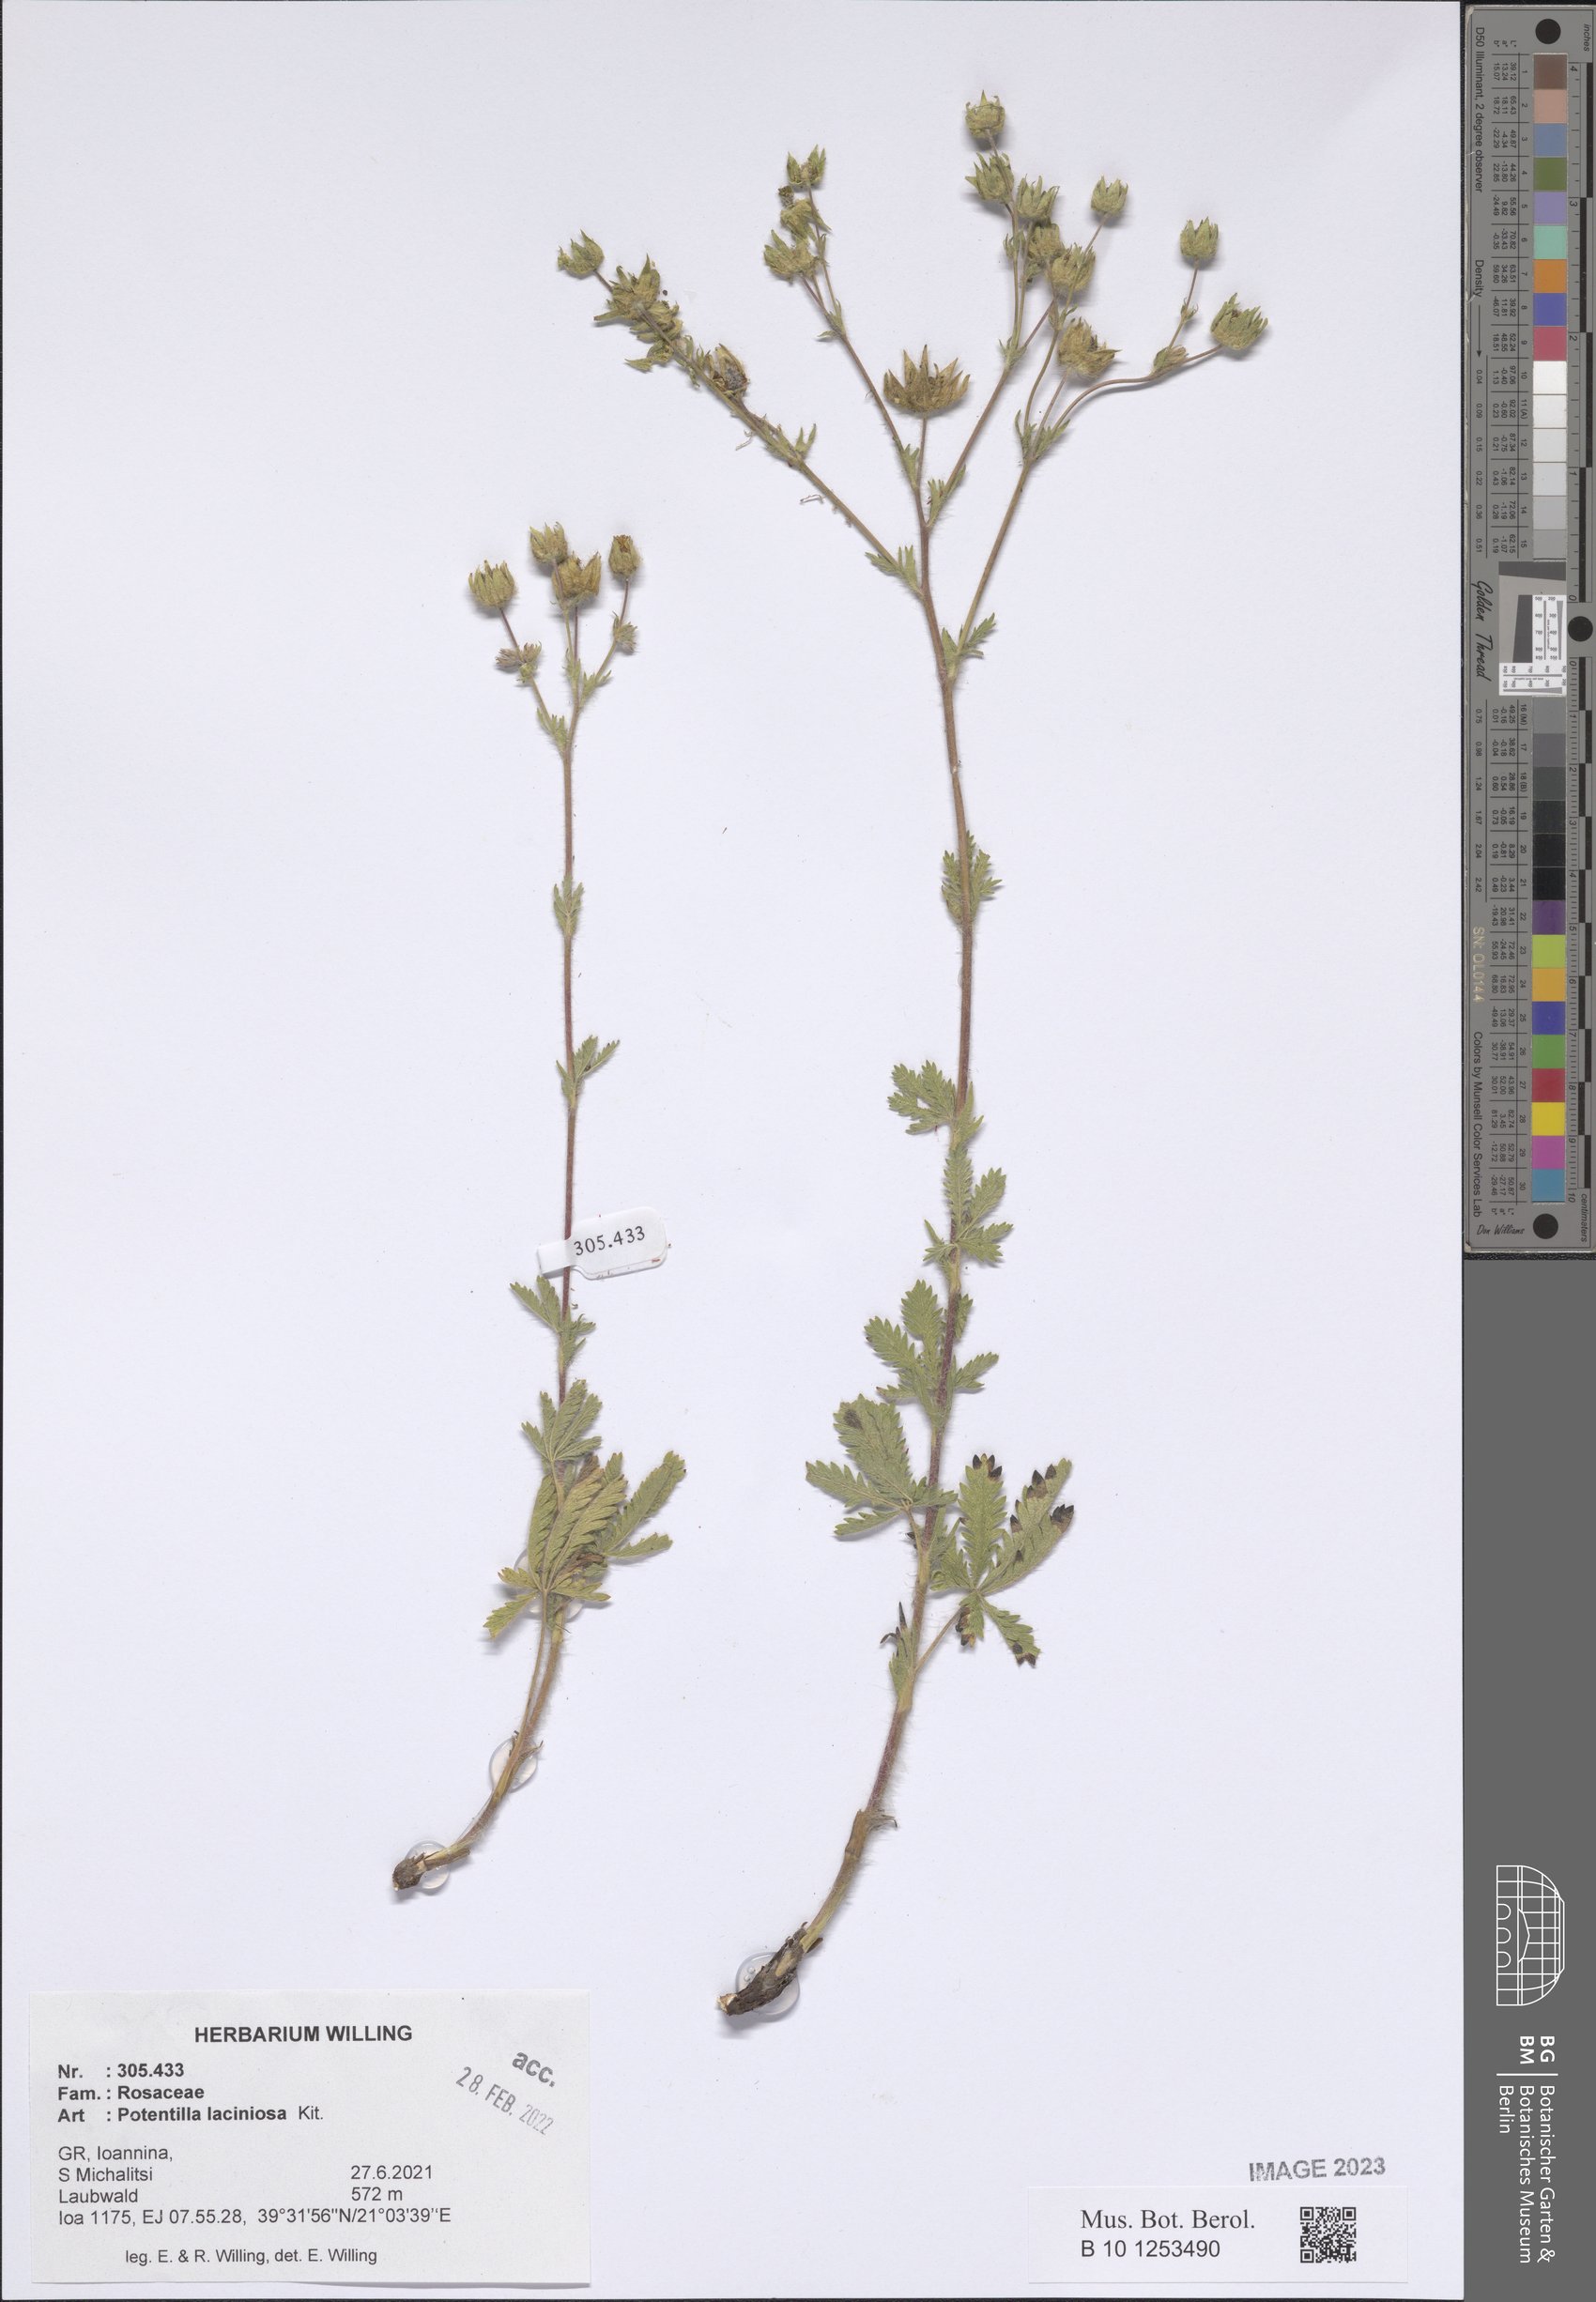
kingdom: Plantae
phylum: Tracheophyta
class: Magnoliopsida
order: Rosales
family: Rosaceae
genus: Potentilla
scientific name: Potentilla recta
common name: Sulphur cinquefoil
